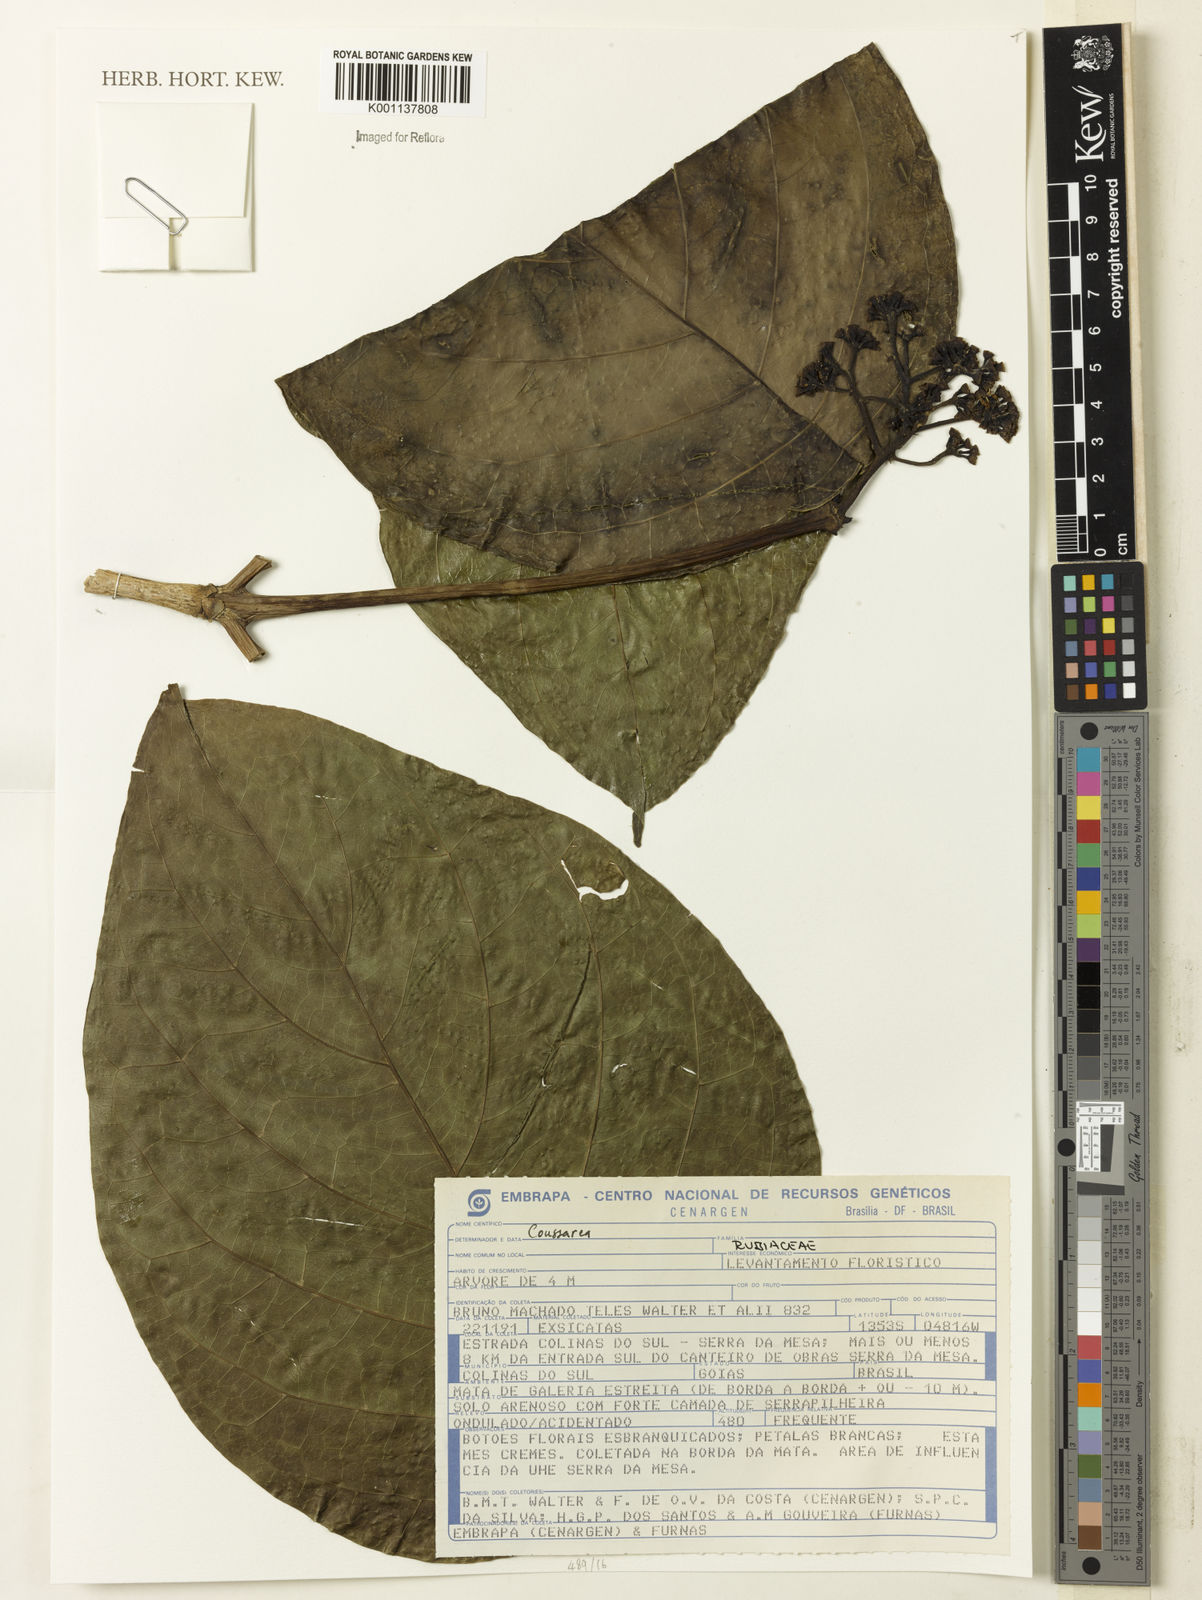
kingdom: Plantae
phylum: Tracheophyta
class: Magnoliopsida
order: Gentianales
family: Rubiaceae
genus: Coussarea
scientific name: Coussarea
